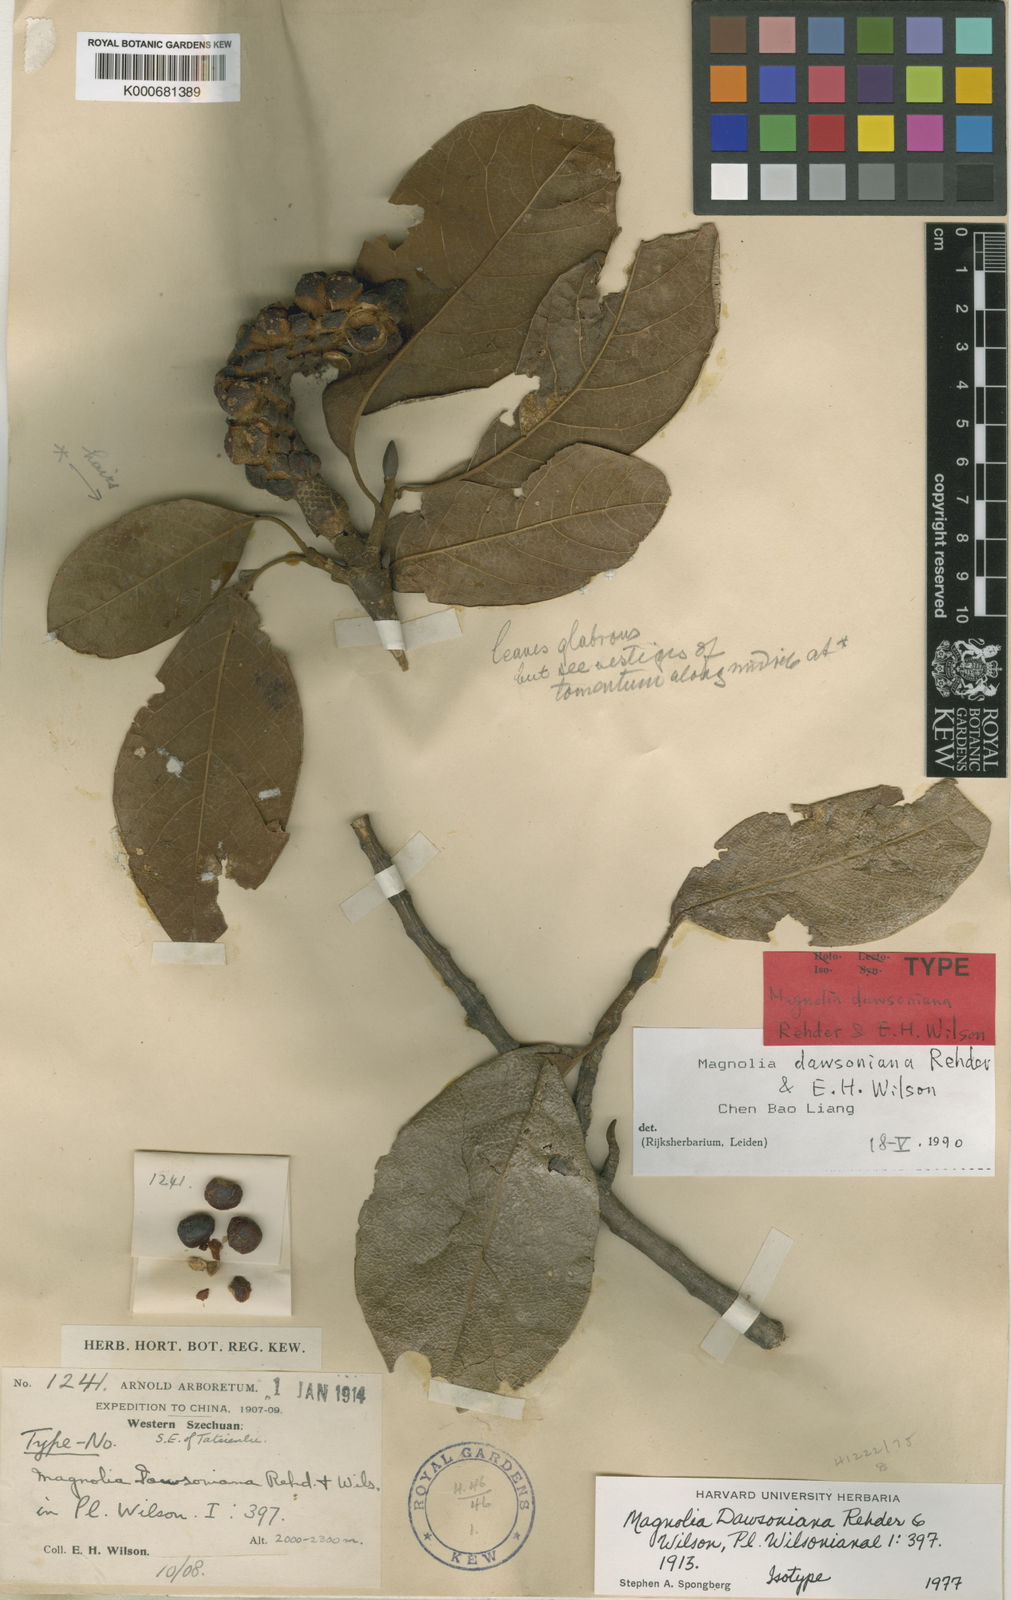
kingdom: Plantae
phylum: Tracheophyta
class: Magnoliopsida
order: Magnoliales
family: Magnoliaceae
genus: Magnolia
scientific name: Magnolia dawsoniana
